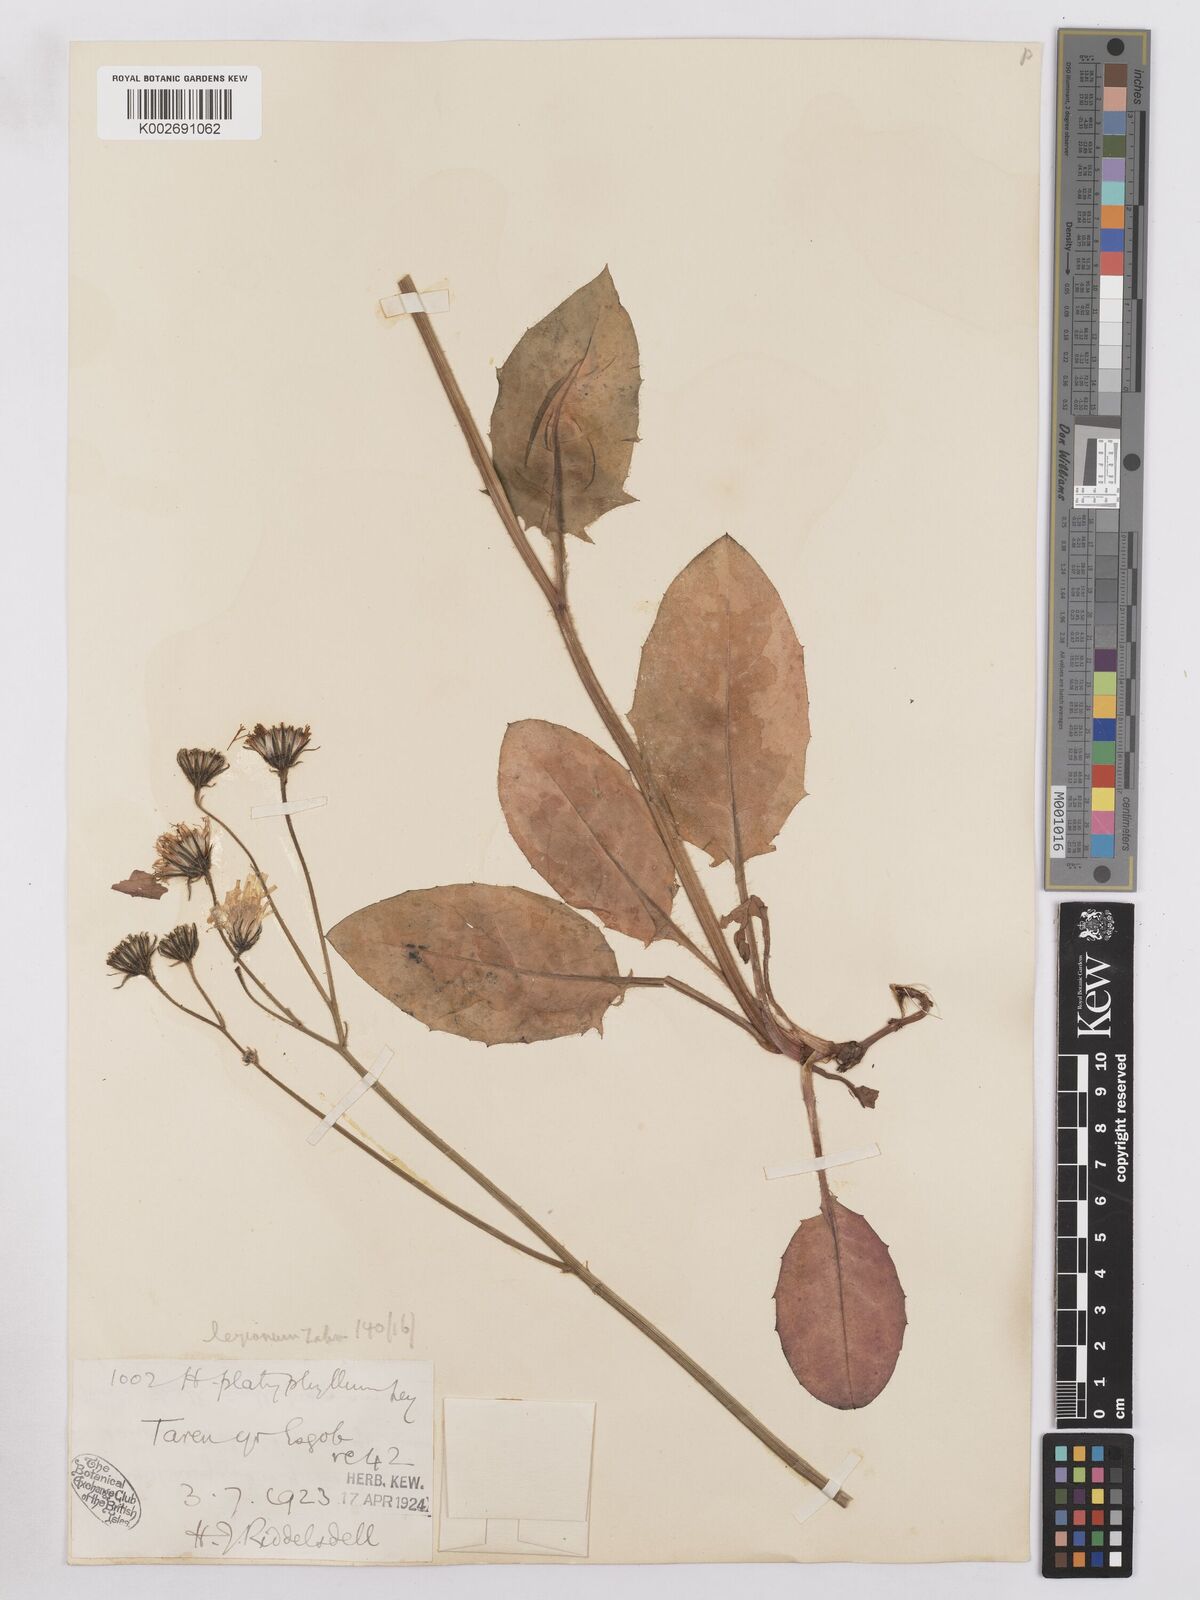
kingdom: Plantae
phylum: Tracheophyta
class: Magnoliopsida
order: Asterales
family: Asteraceae
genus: Hieracium
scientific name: Hieracium leyanum
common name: Fat-leaved hawkweed
